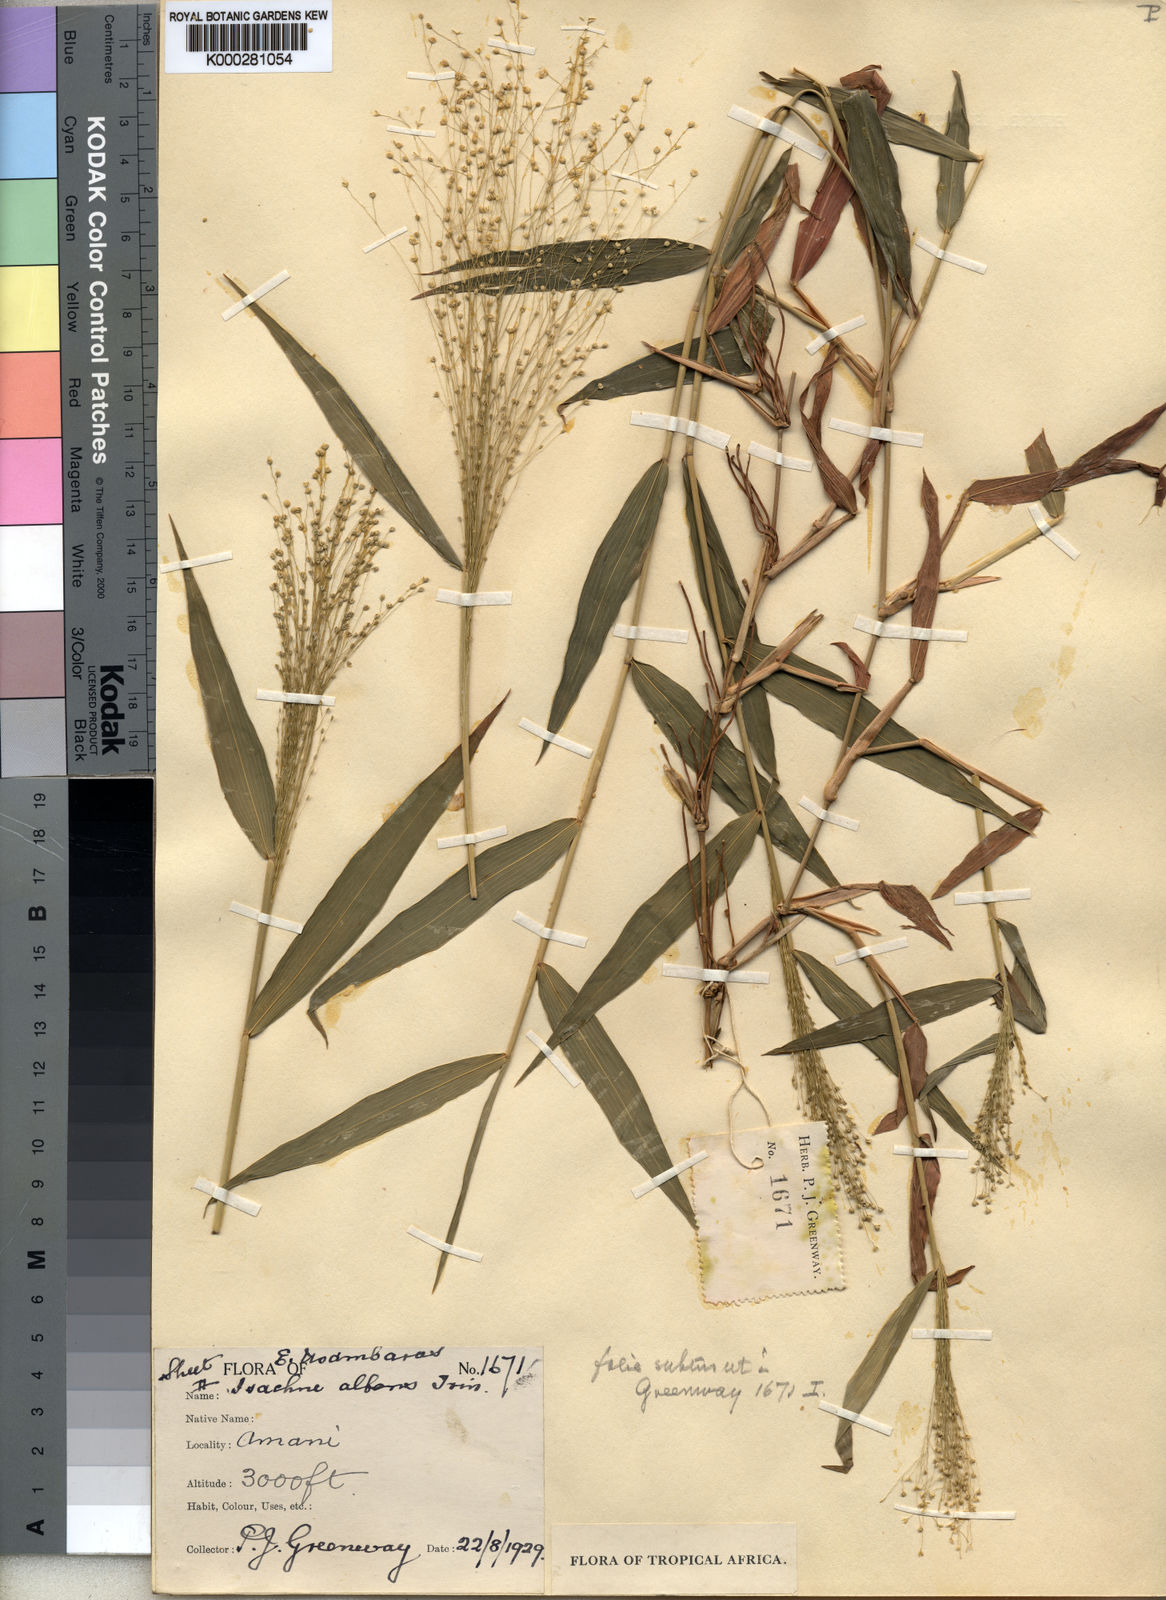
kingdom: Plantae
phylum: Tracheophyta
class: Liliopsida
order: Poales
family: Poaceae
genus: Isachne
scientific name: Isachne mauritiana
